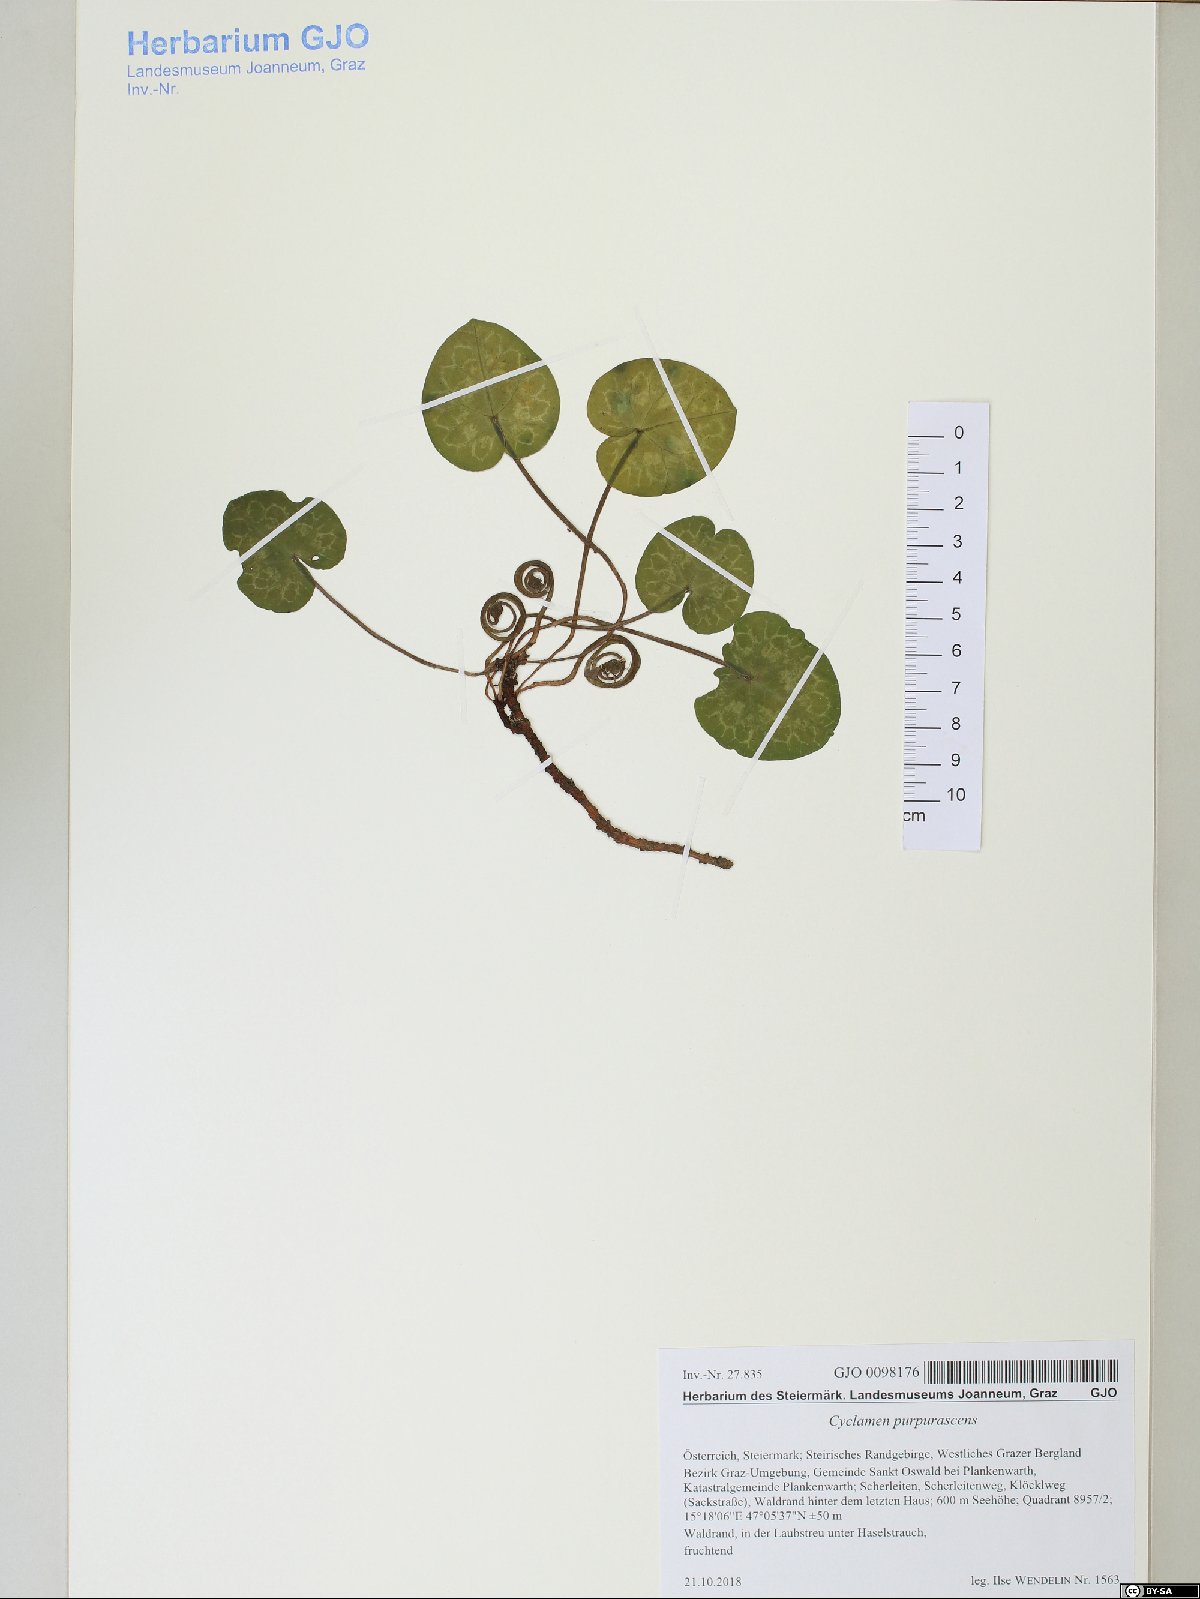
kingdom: Plantae
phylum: Tracheophyta
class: Magnoliopsida
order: Ericales
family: Primulaceae
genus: Cyclamen
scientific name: Cyclamen purpurascens
